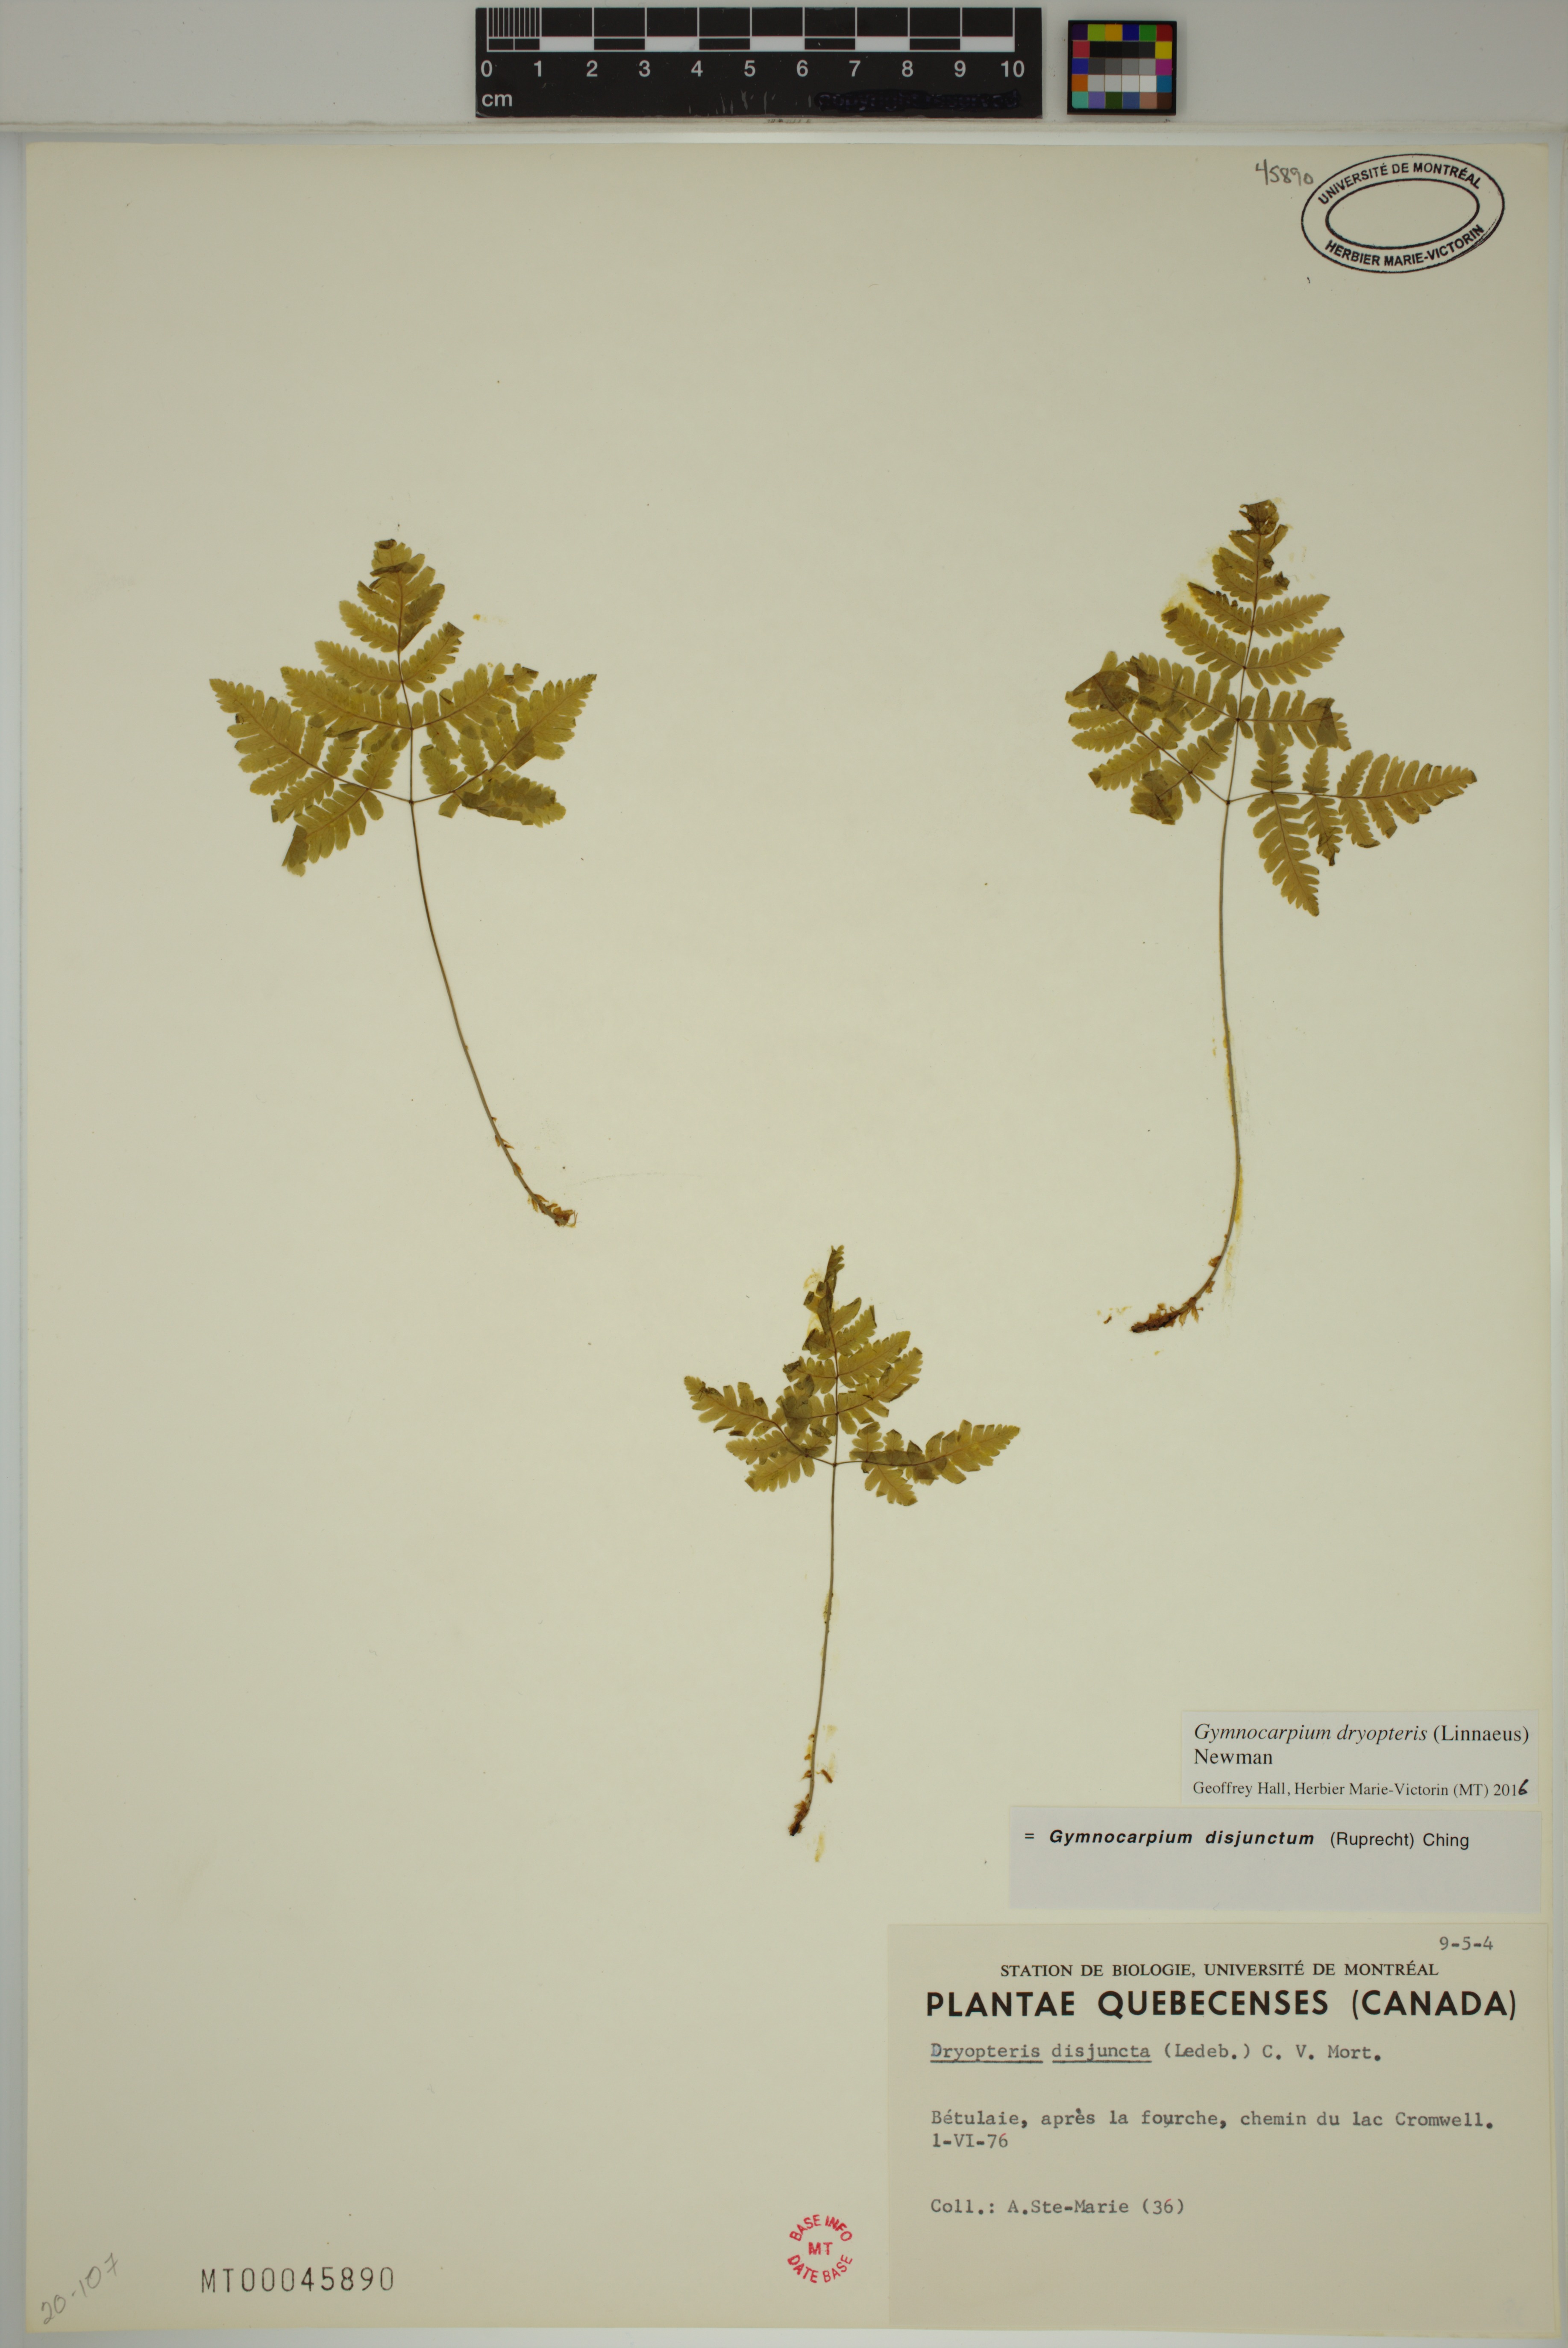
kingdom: Plantae
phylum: Tracheophyta
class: Polypodiopsida
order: Polypodiales
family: Cystopteridaceae
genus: Gymnocarpium
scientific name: Gymnocarpium dryopteris
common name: Oak fern
